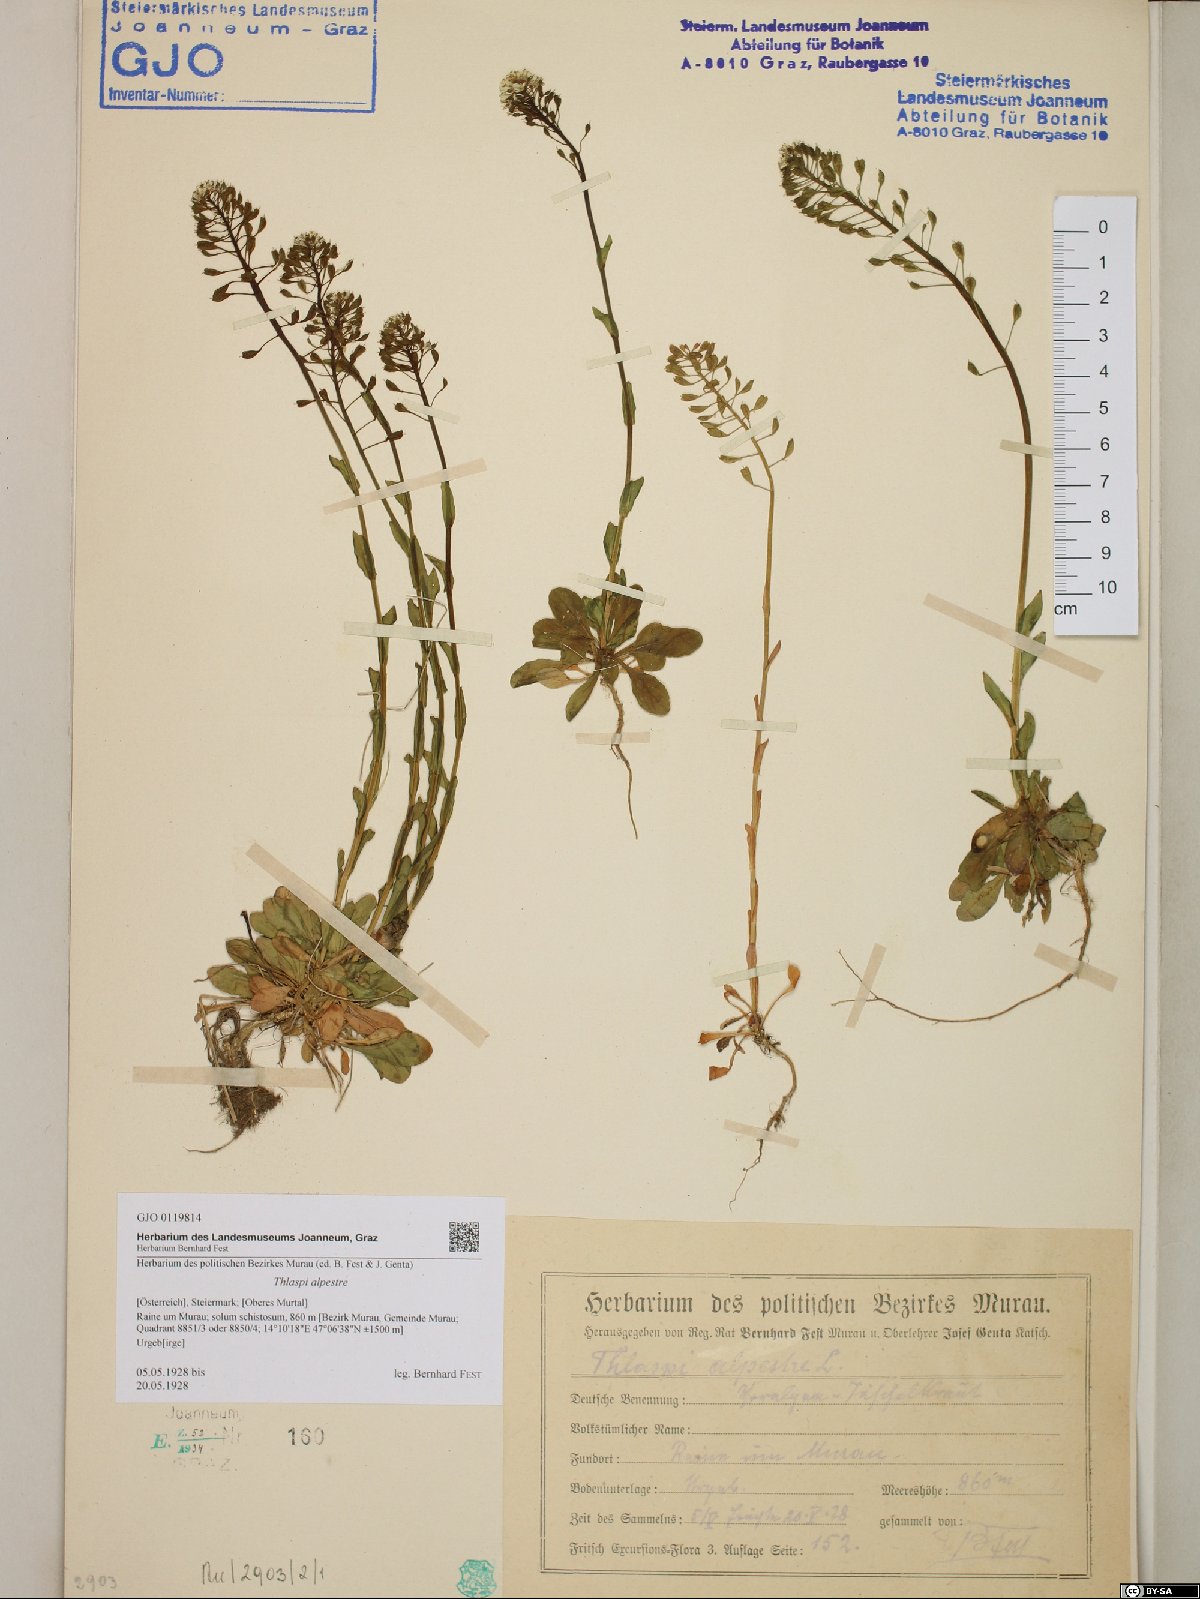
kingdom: Plantae
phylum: Tracheophyta
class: Magnoliopsida
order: Brassicales
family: Brassicaceae
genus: Noccaea
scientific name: Noccaea alpestris
